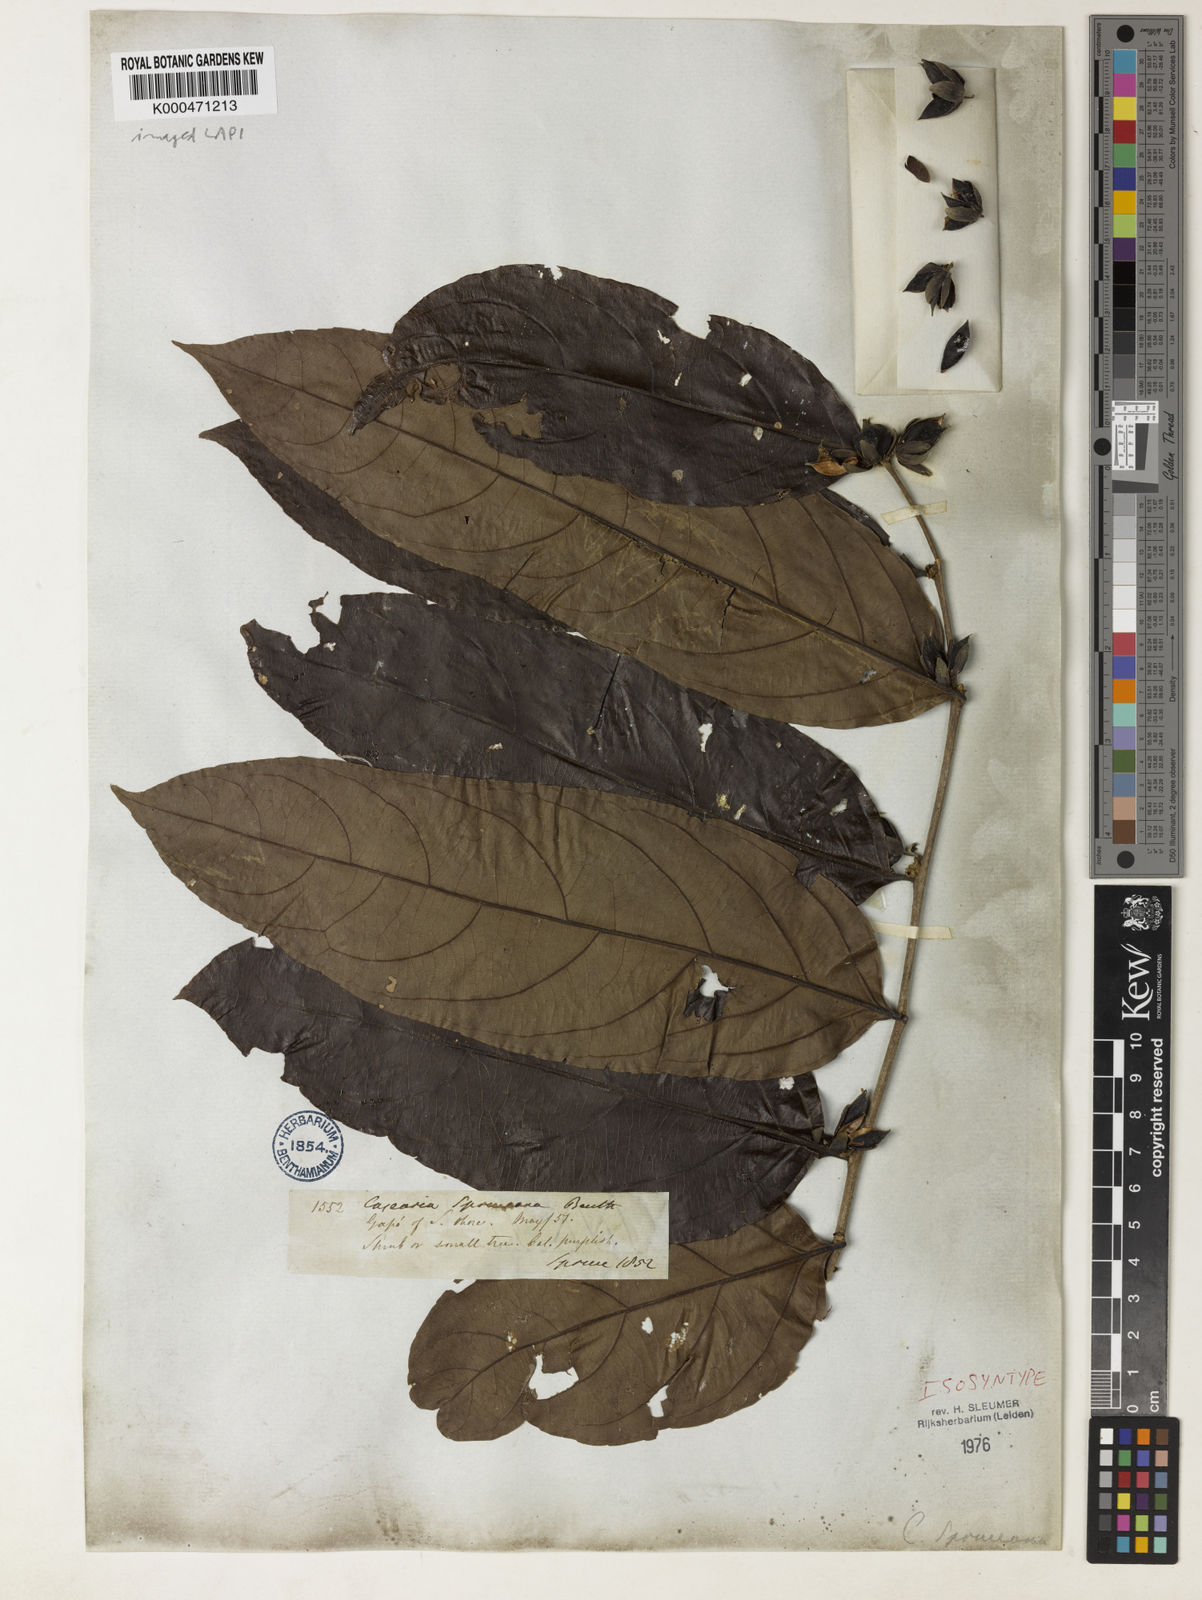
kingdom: Plantae
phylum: Tracheophyta
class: Magnoliopsida
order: Malpighiales
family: Salicaceae
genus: Piparea
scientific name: Piparea spruceana
